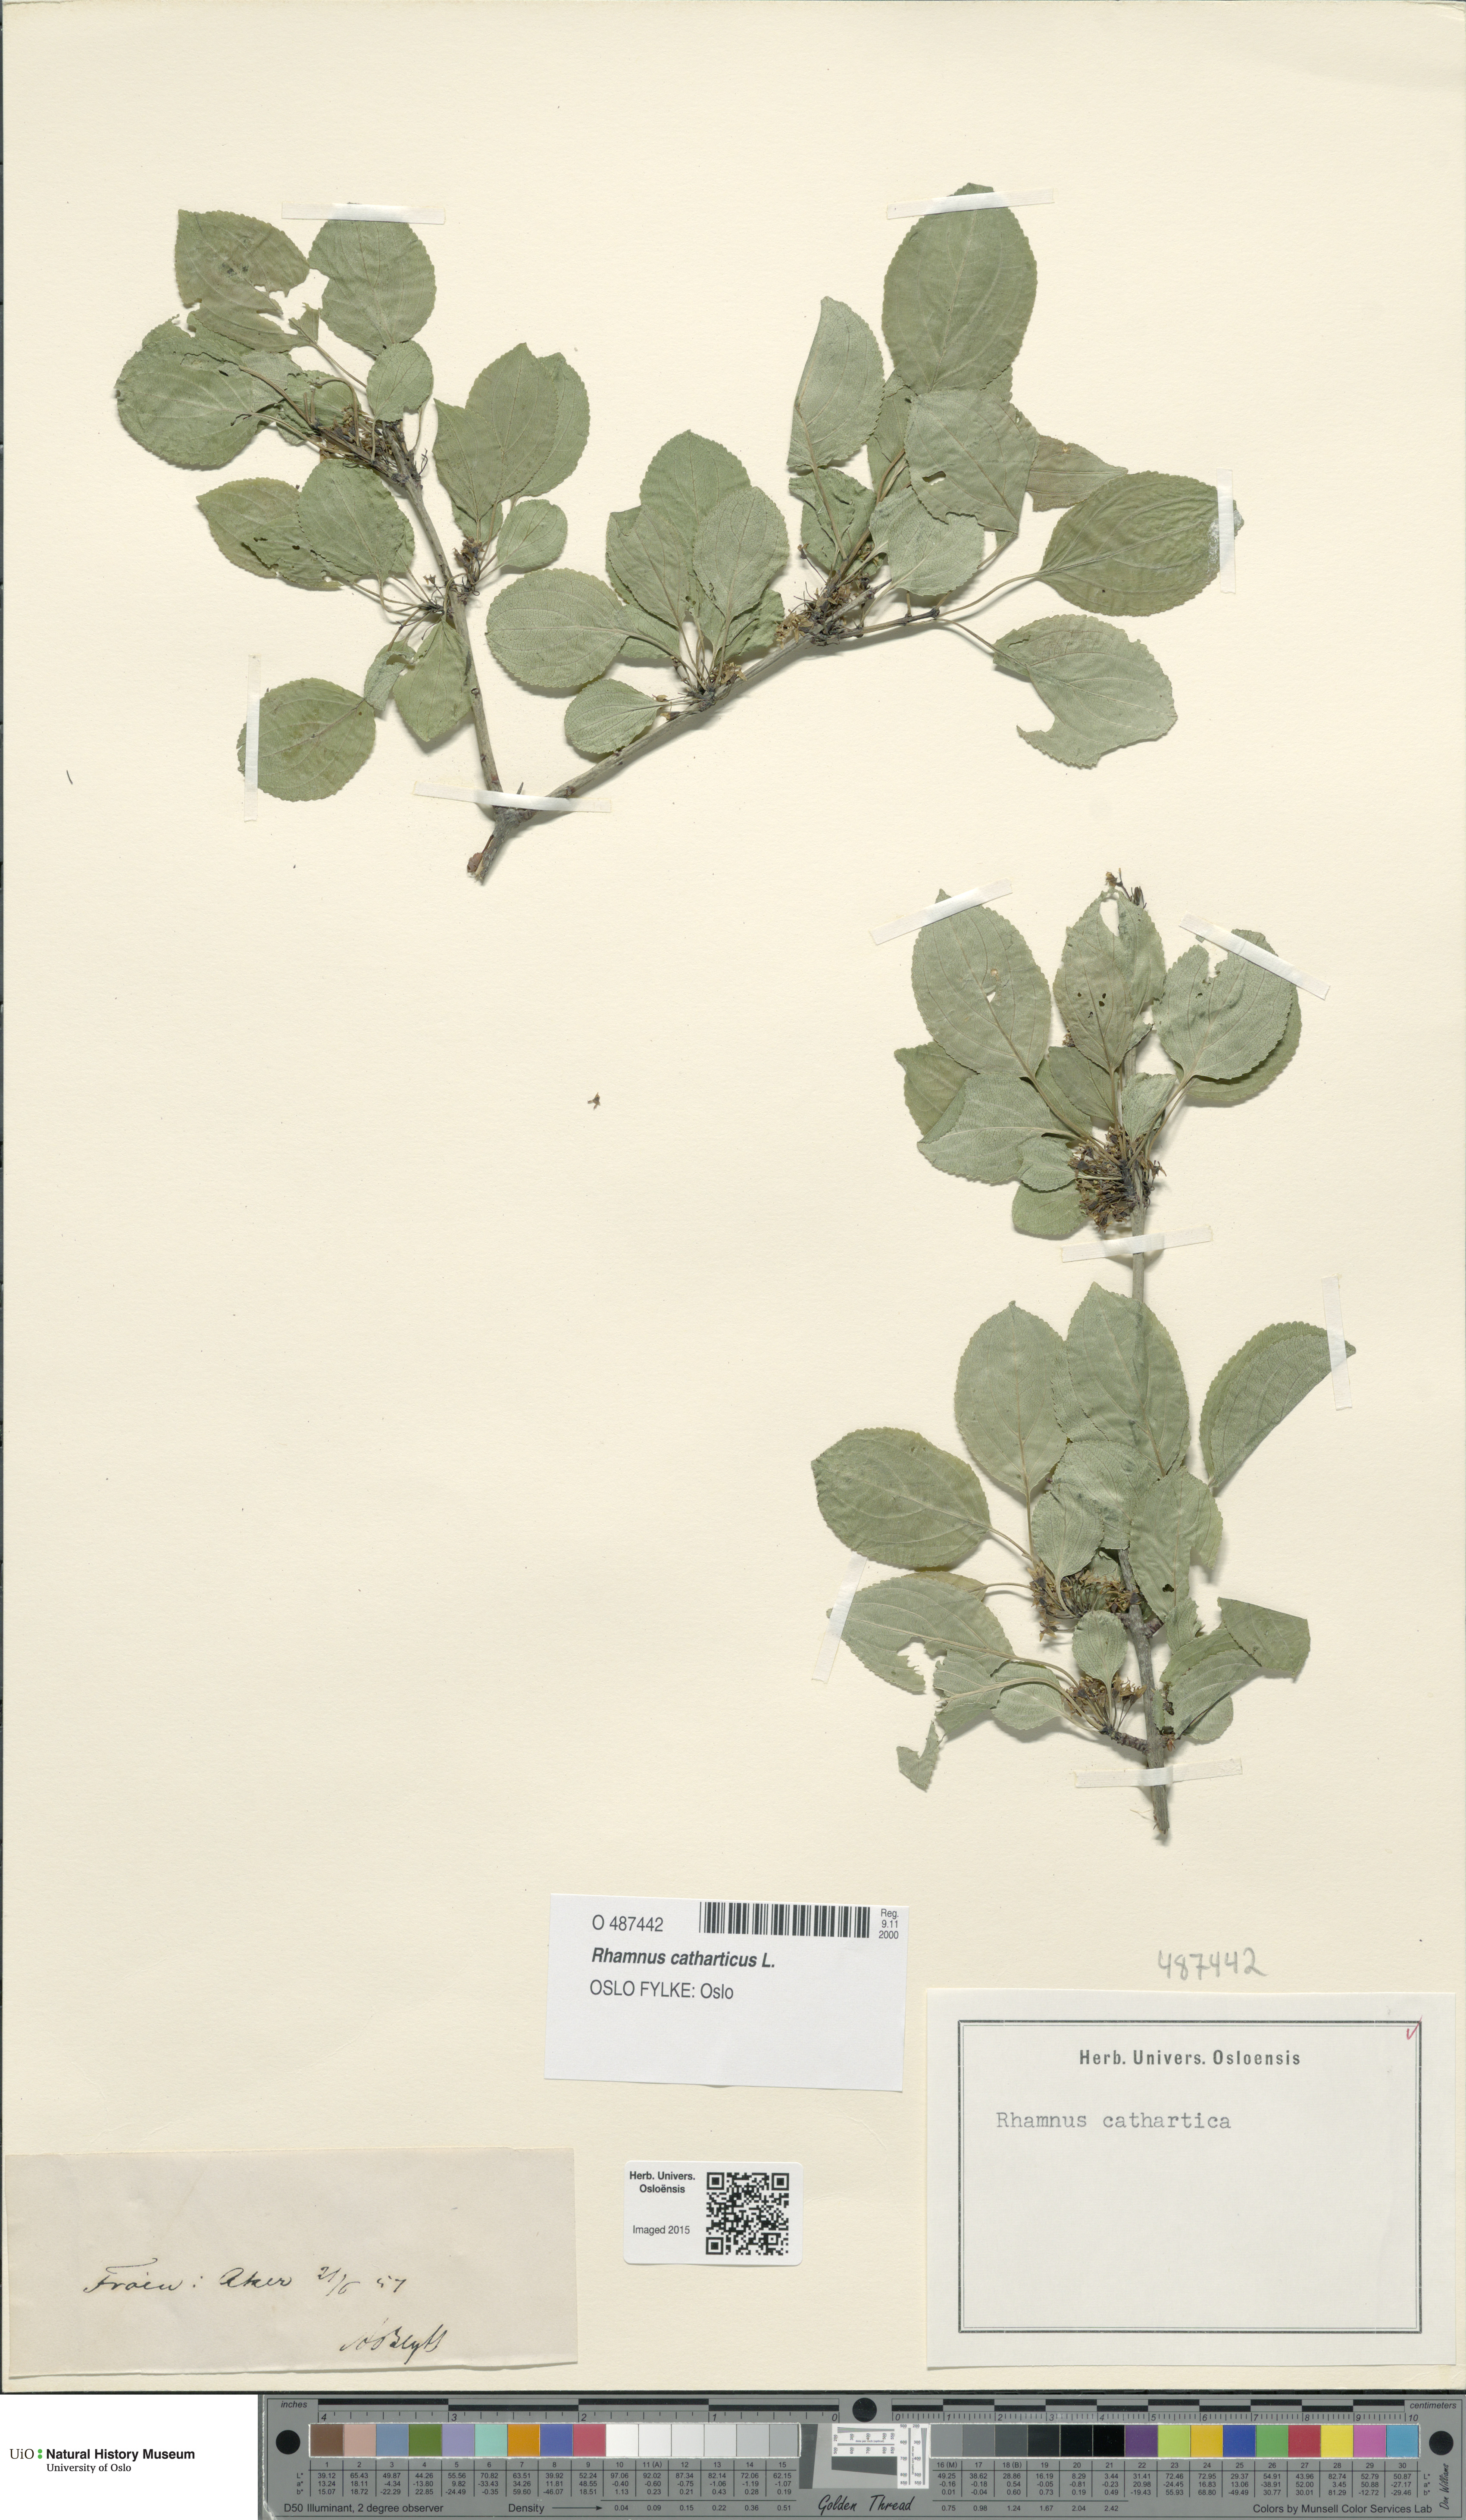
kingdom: Plantae
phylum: Tracheophyta
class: Magnoliopsida
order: Rosales
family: Rhamnaceae
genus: Rhamnus
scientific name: Rhamnus cathartica
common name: Common buckthorn
